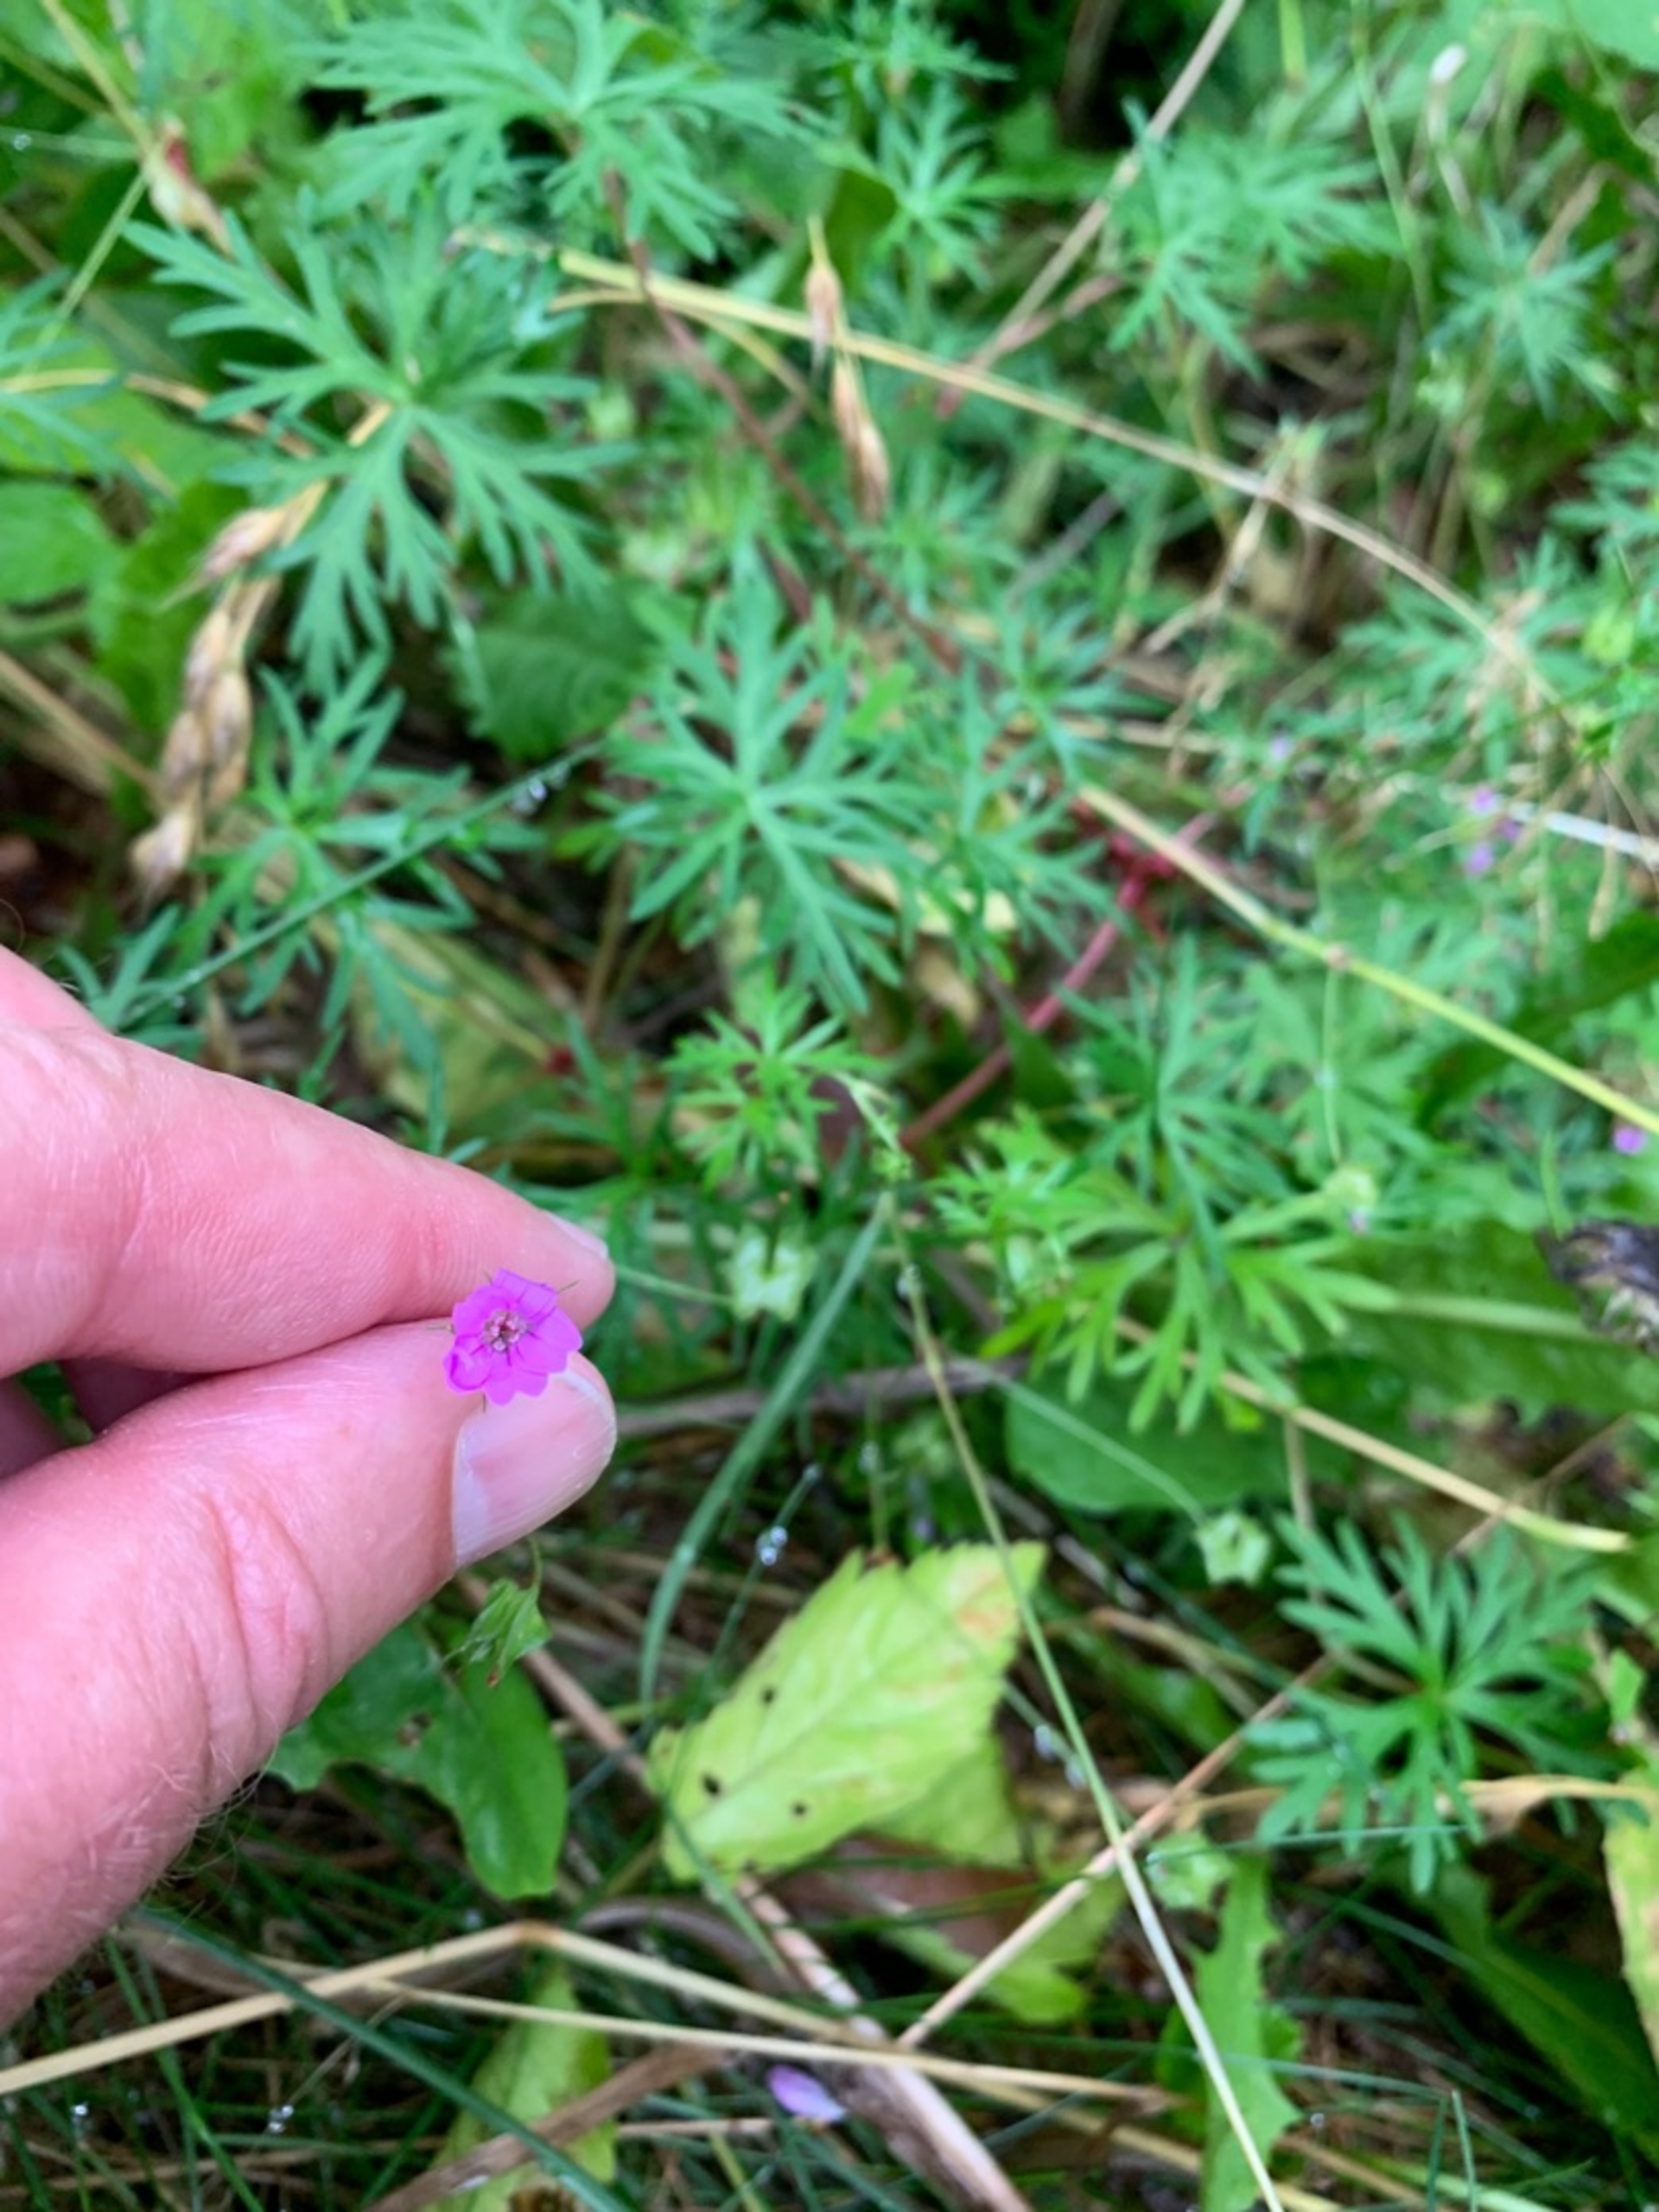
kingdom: Plantae
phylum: Tracheophyta
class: Magnoliopsida
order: Geraniales
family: Geraniaceae
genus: Geranium
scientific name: Geranium columbinum
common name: Storbægret storkenæb
